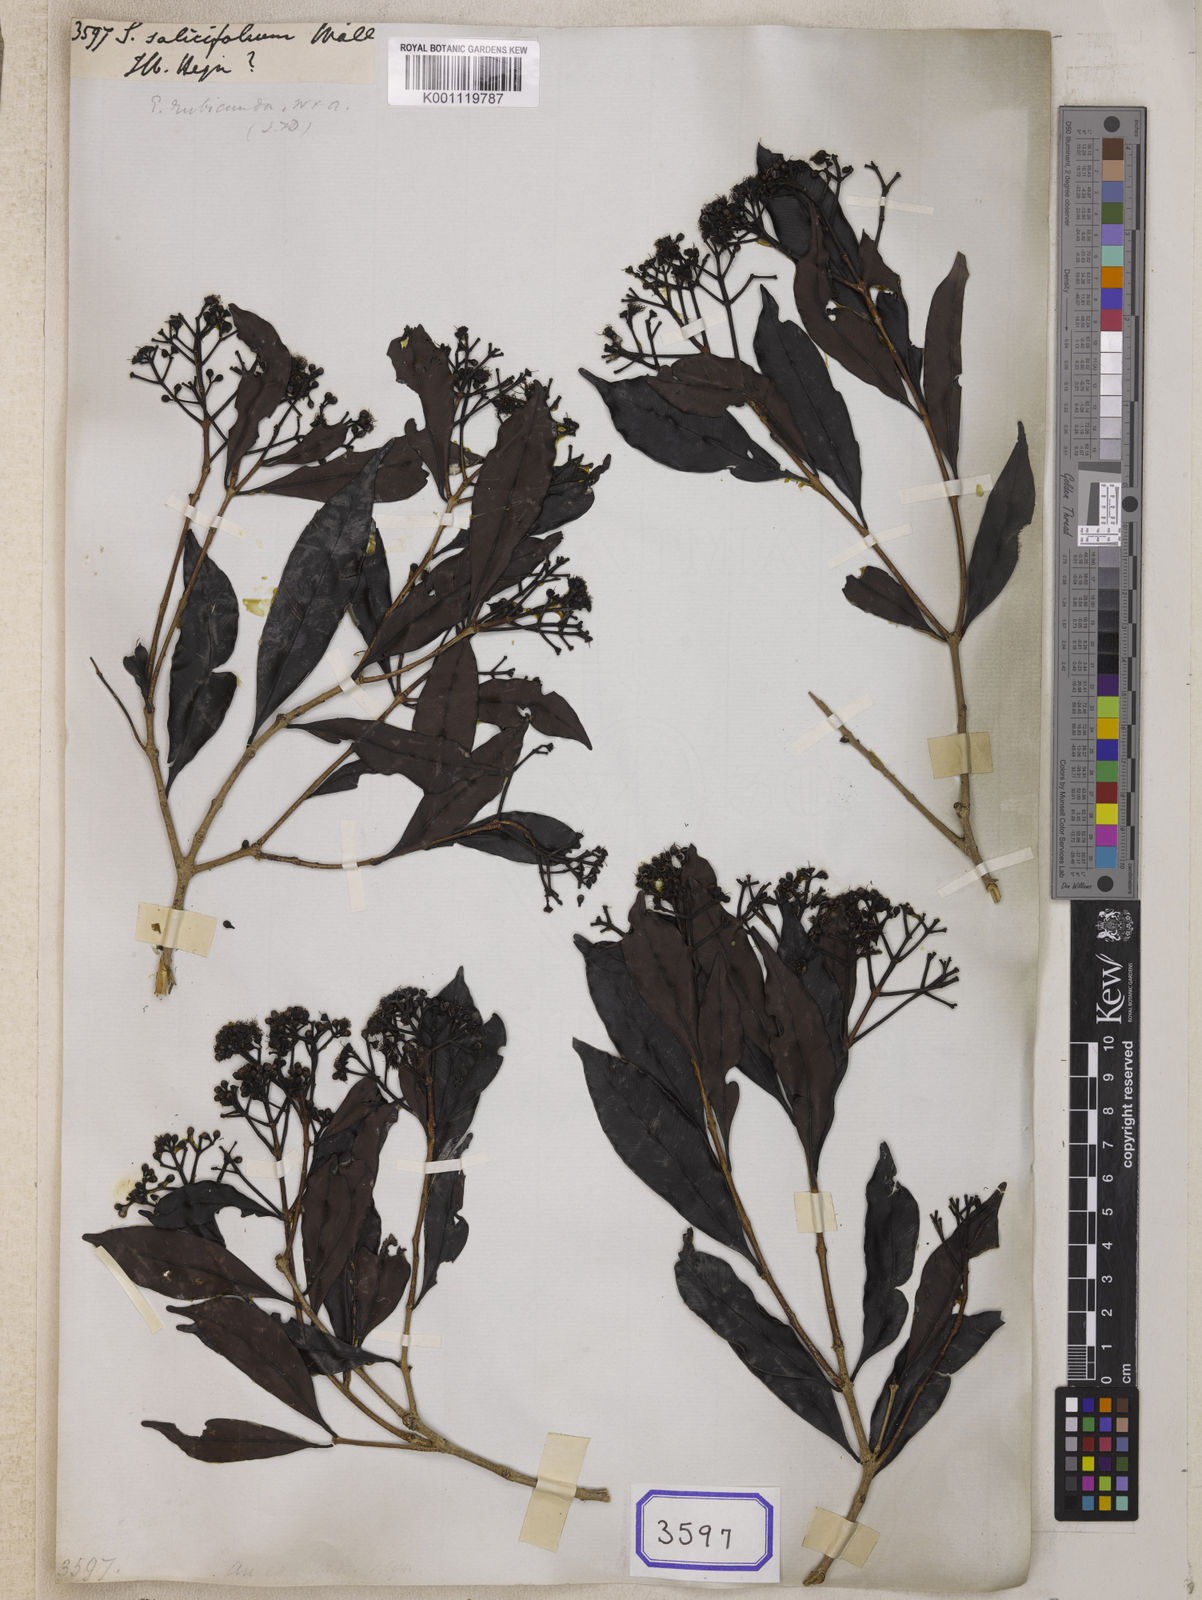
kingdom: Plantae
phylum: Tracheophyta
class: Magnoliopsida
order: Myrtales
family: Myrtaceae
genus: Syzygium
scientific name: Syzygium
